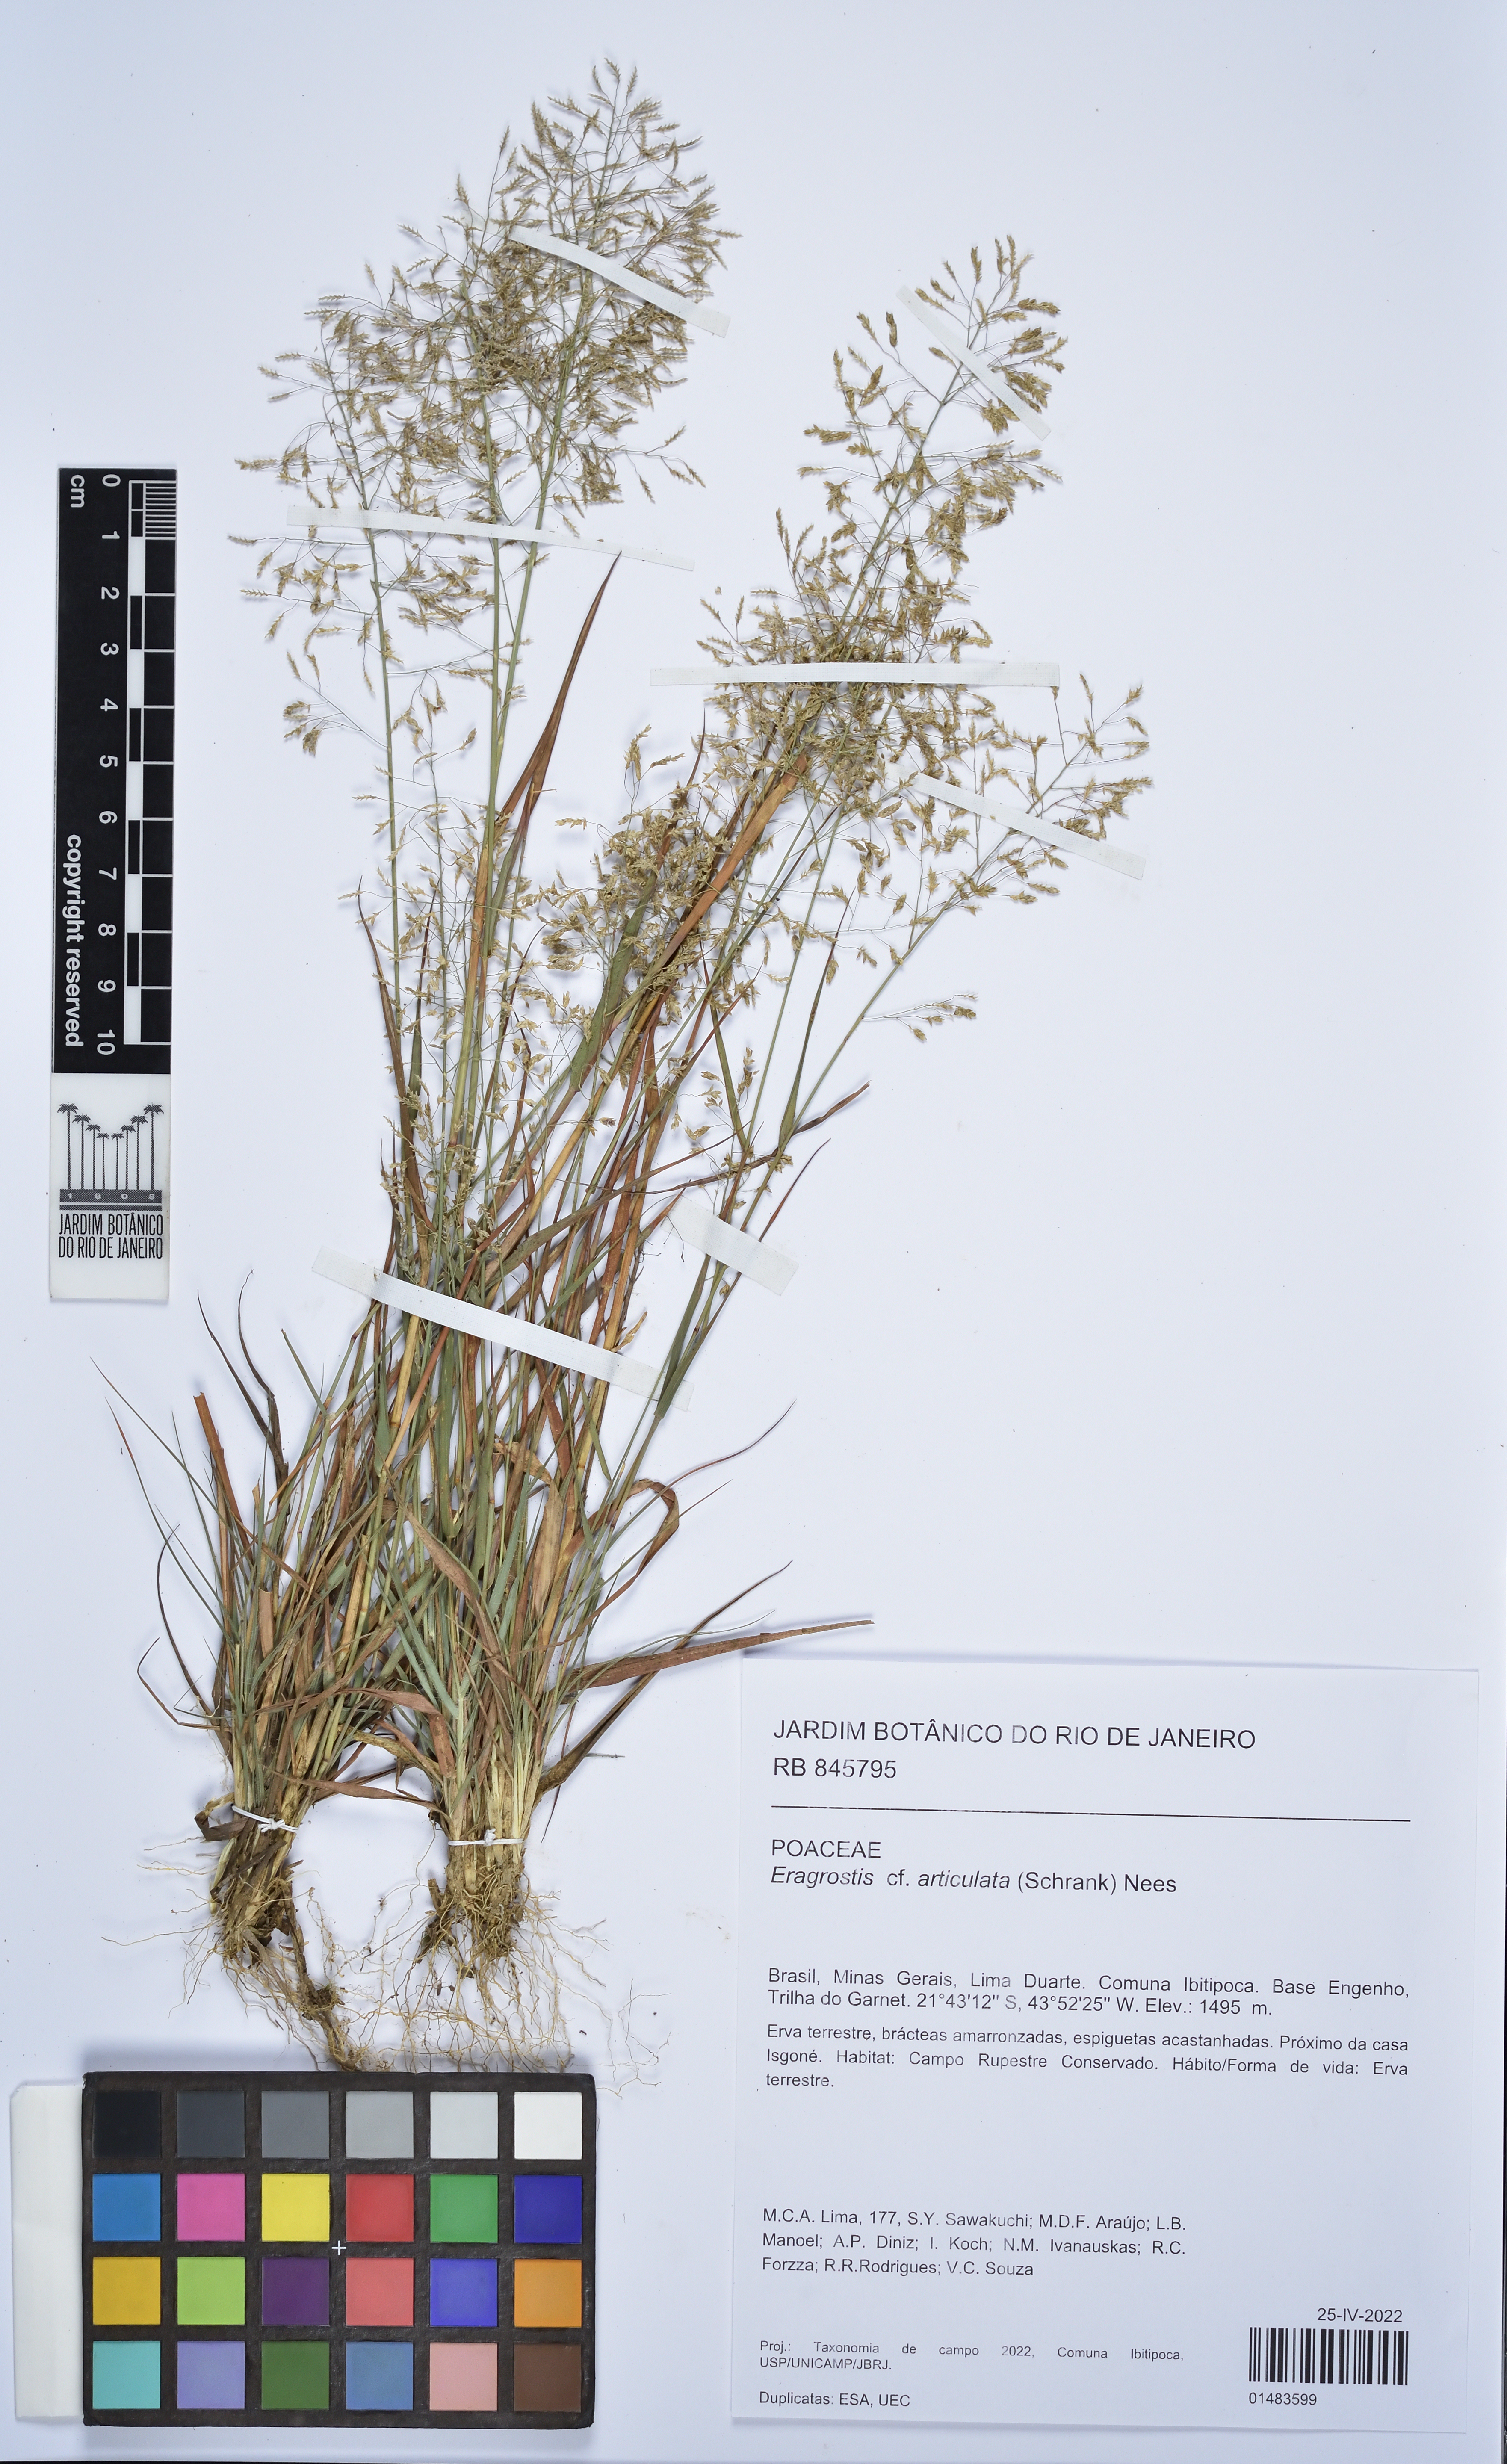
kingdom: Plantae
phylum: Tracheophyta
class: Liliopsida
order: Poales
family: Poaceae
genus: Eragrostis
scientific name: Eragrostis articulata
